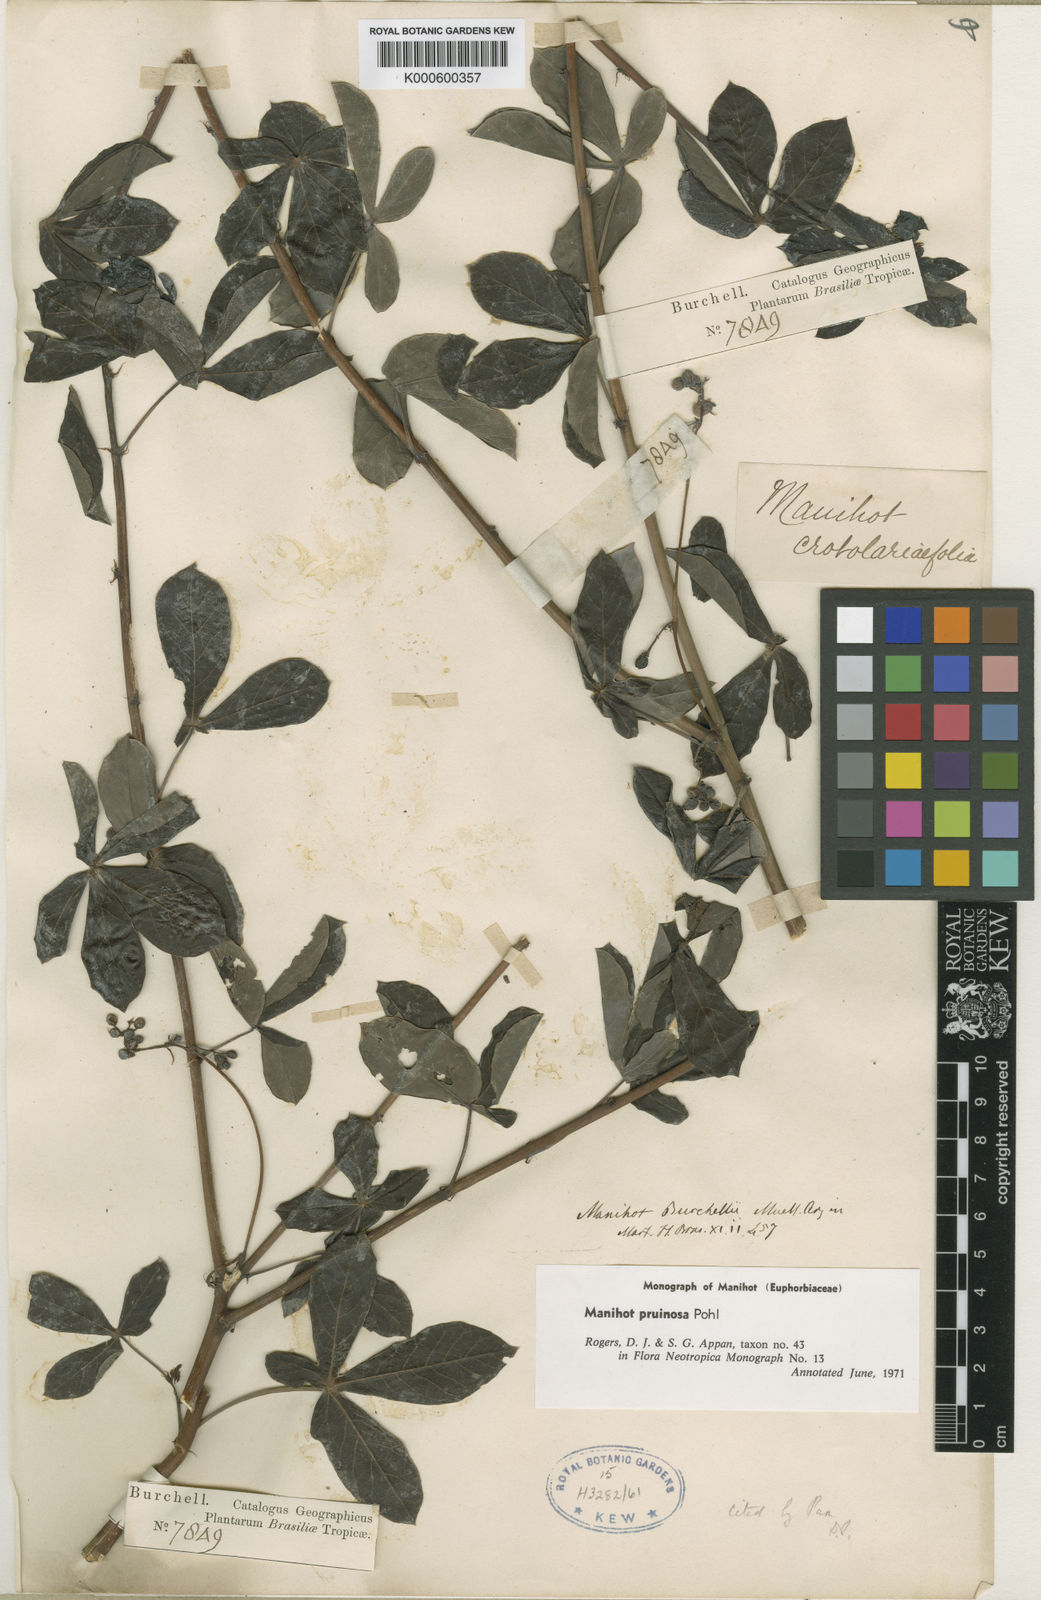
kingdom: Plantae
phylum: Tracheophyta
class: Magnoliopsida
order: Malpighiales
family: Euphorbiaceae
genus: Manihot
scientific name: Manihot pruinosa
